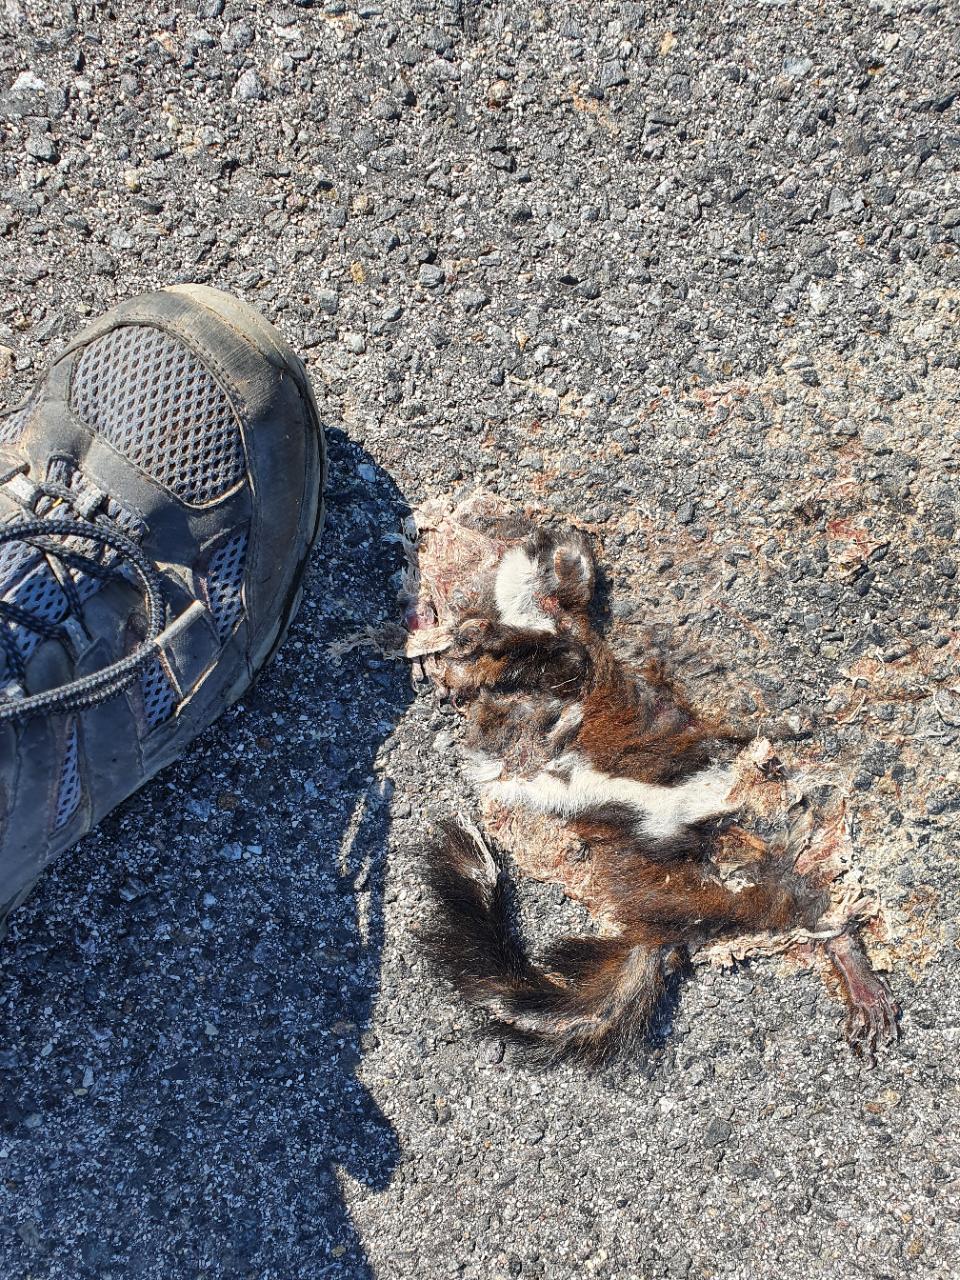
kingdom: Animalia
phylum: Chordata
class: Mammalia
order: Rodentia
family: Sciuridae
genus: Sciurus
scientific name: Sciurus vulgaris
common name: Eurasian red squirrel
